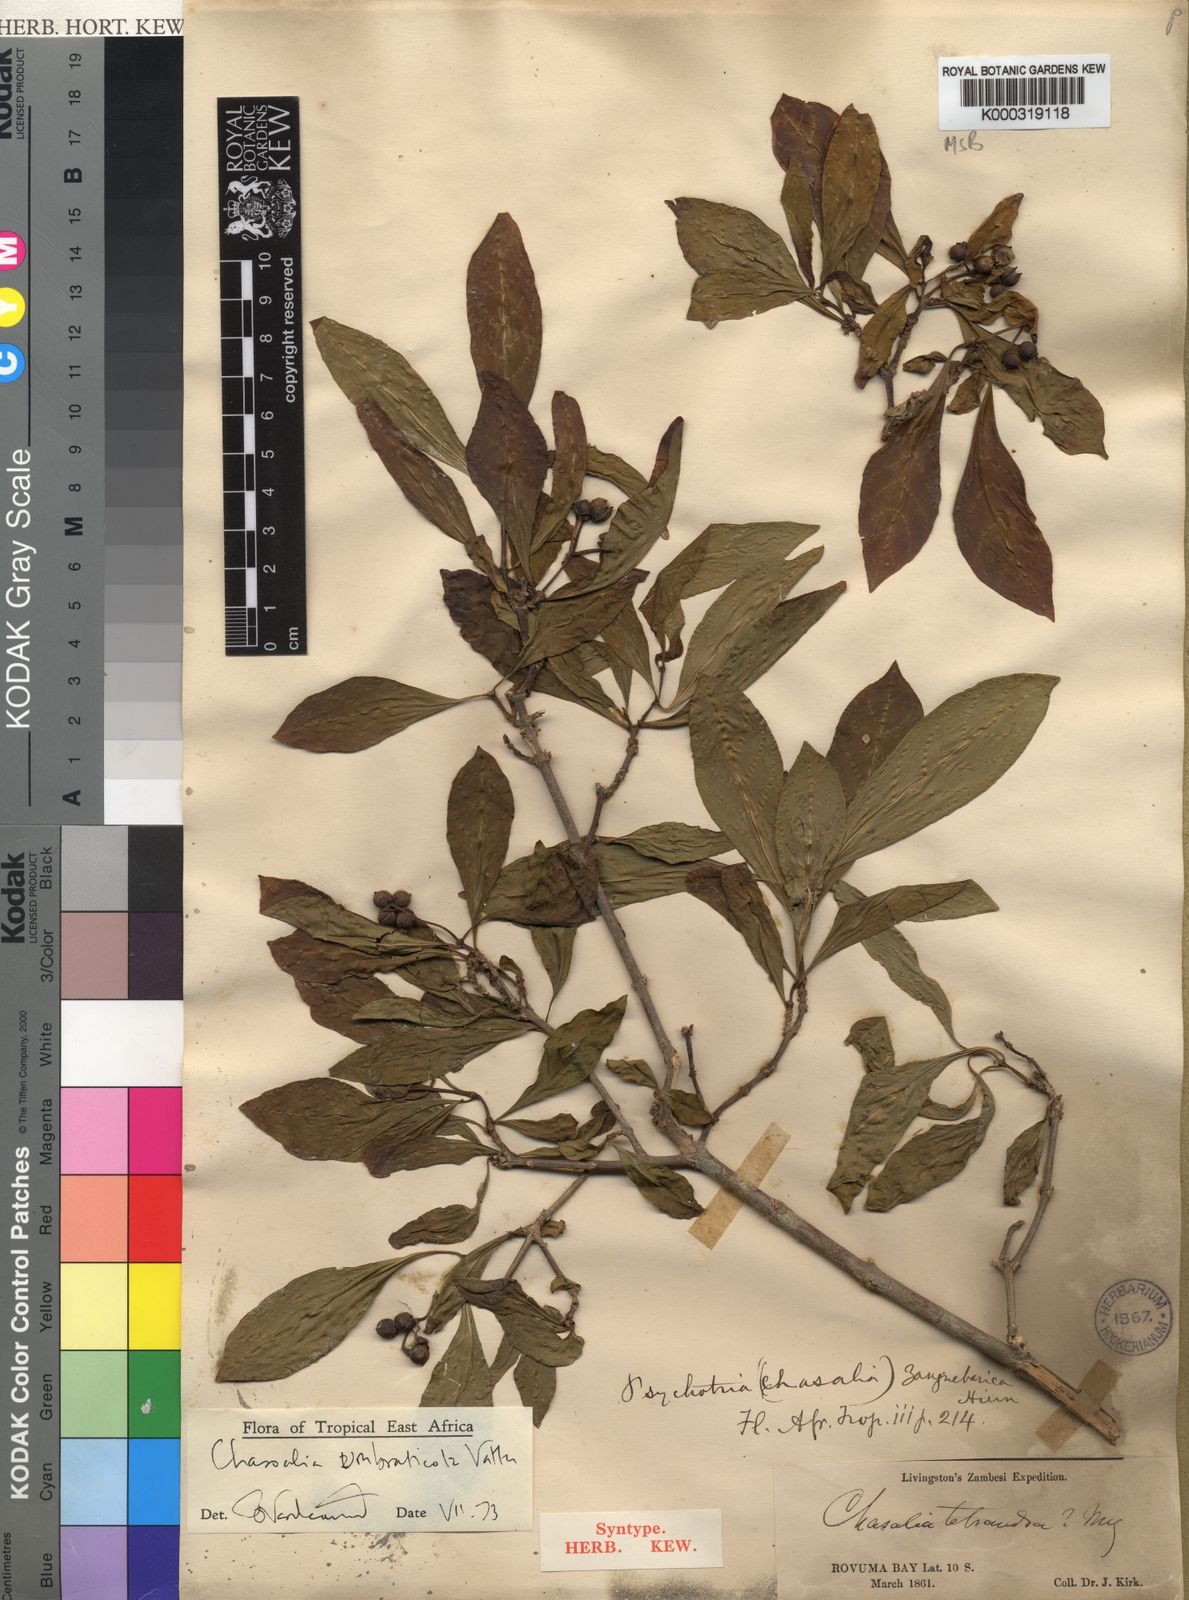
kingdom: Plantae
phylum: Tracheophyta
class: Magnoliopsida
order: Gentianales
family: Rubiaceae
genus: Chassalia
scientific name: Chassalia umbraticola
